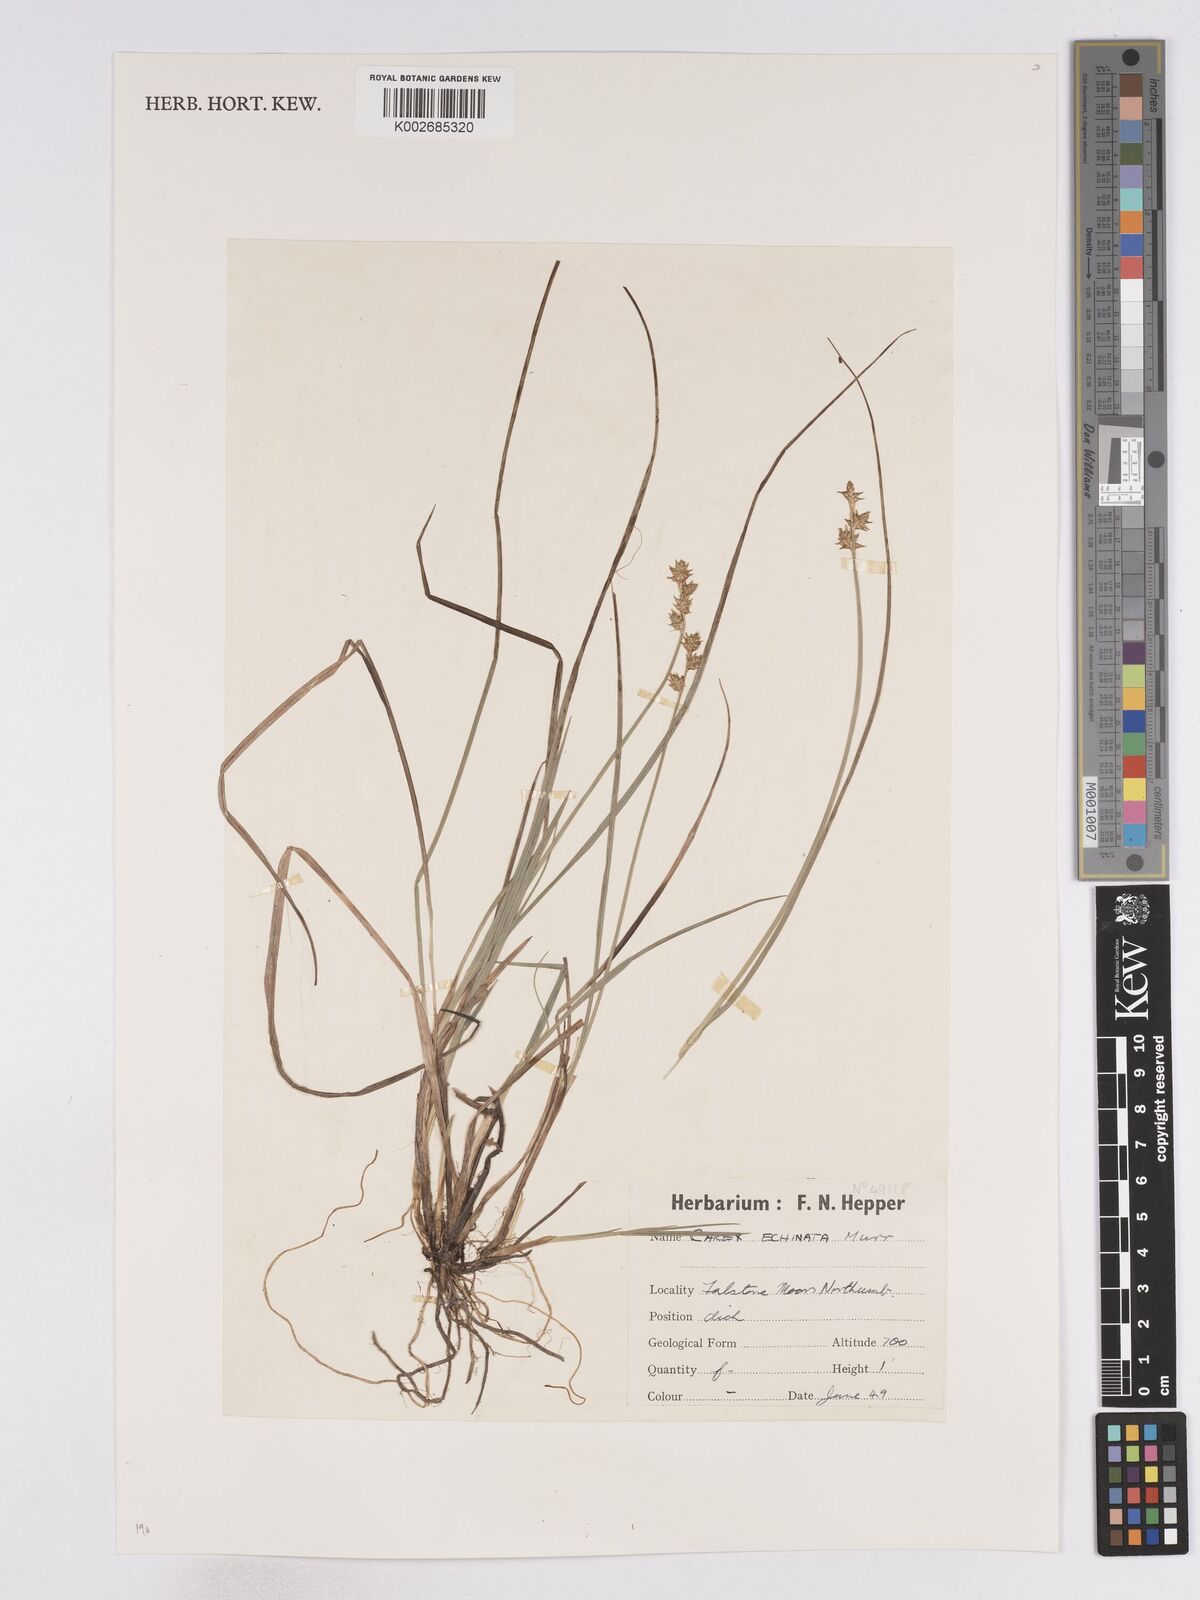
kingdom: Plantae
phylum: Tracheophyta
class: Liliopsida
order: Poales
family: Cyperaceae
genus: Carex
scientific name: Carex echinata
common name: Star sedge
